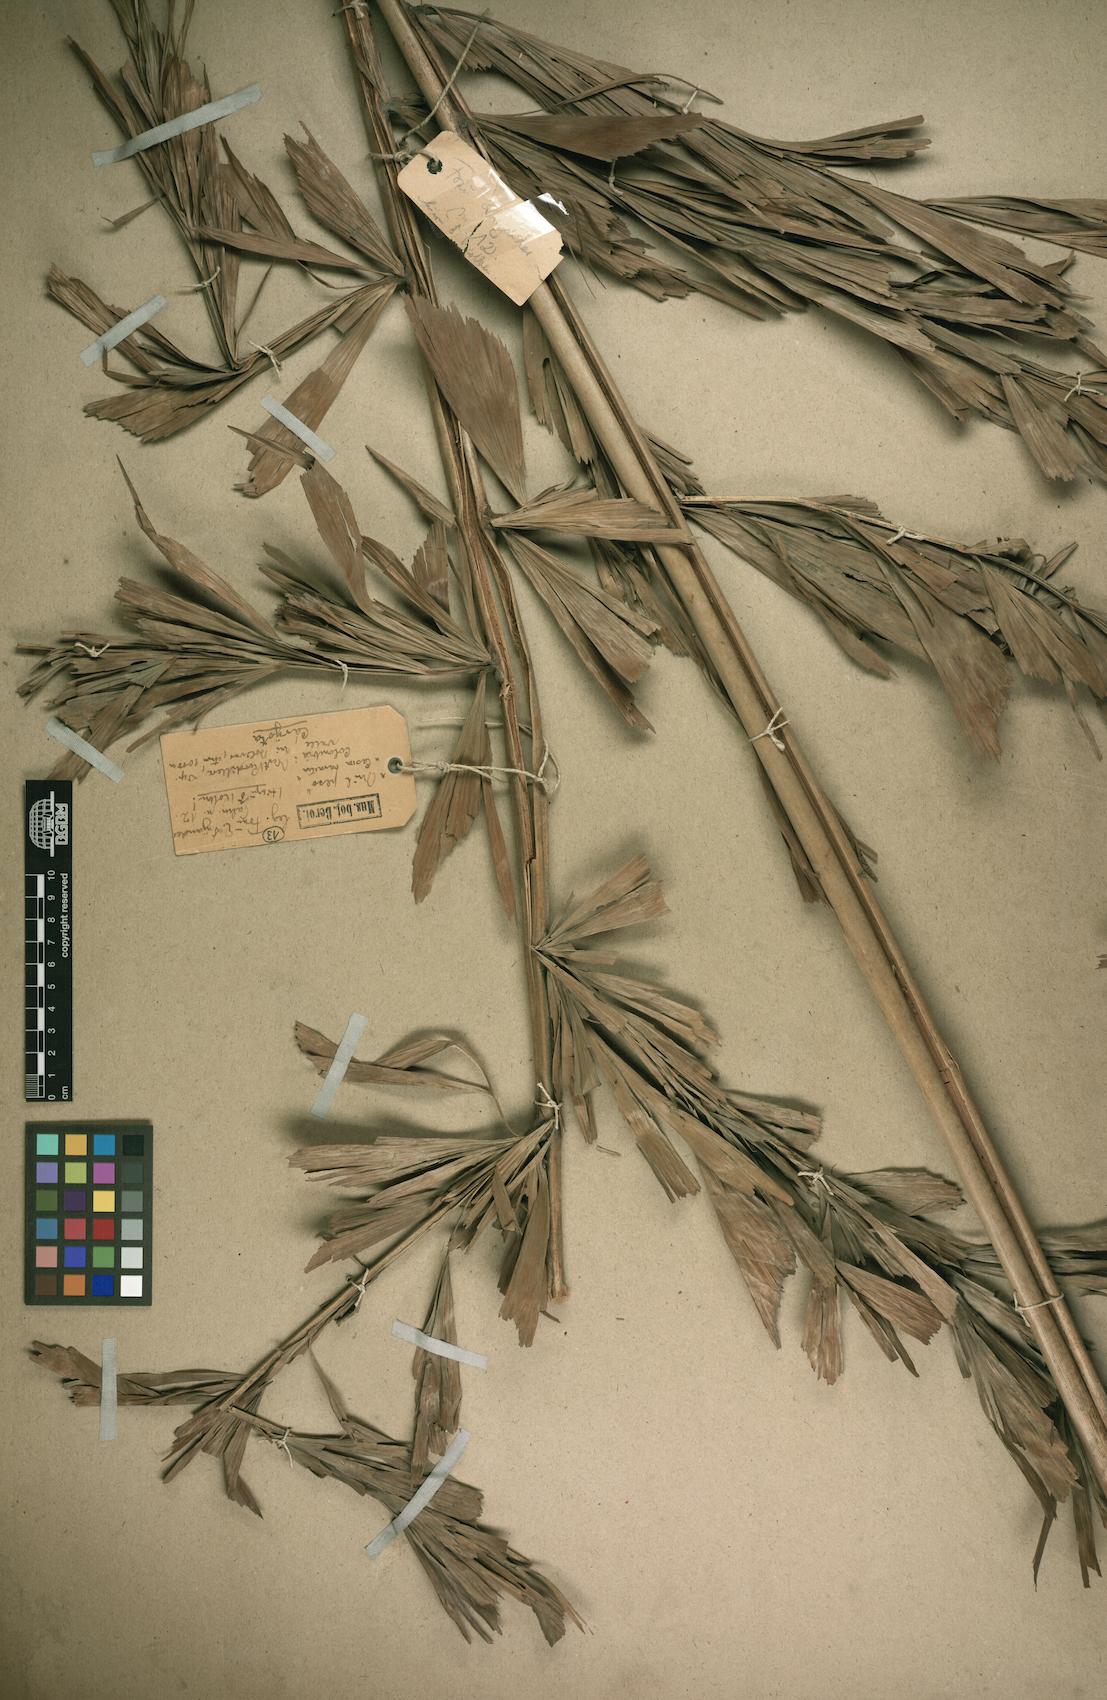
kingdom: Plantae
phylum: Tracheophyta
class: Liliopsida
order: Arecales
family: Arecaceae
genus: Caryota
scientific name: Caryota
